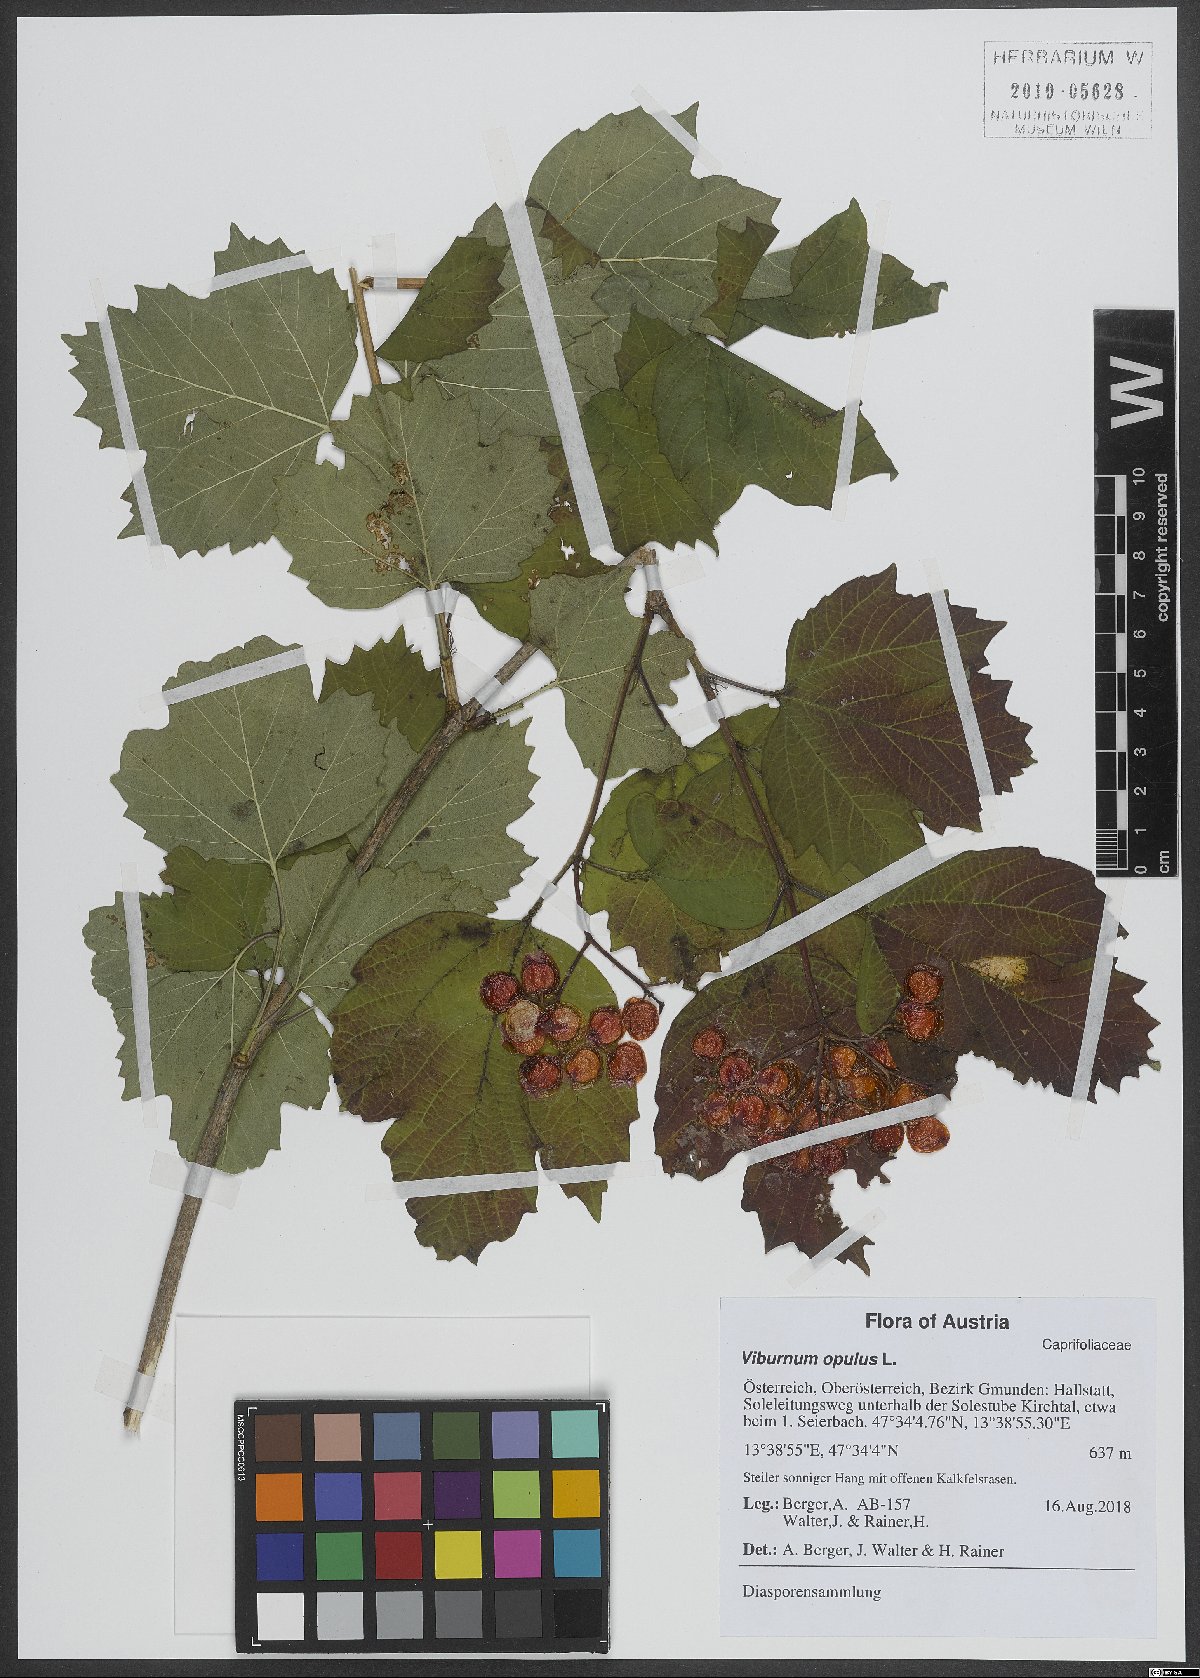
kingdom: Plantae
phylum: Tracheophyta
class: Magnoliopsida
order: Dipsacales
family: Viburnaceae
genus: Viburnum
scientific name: Viburnum opulus
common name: Guelder-rose
